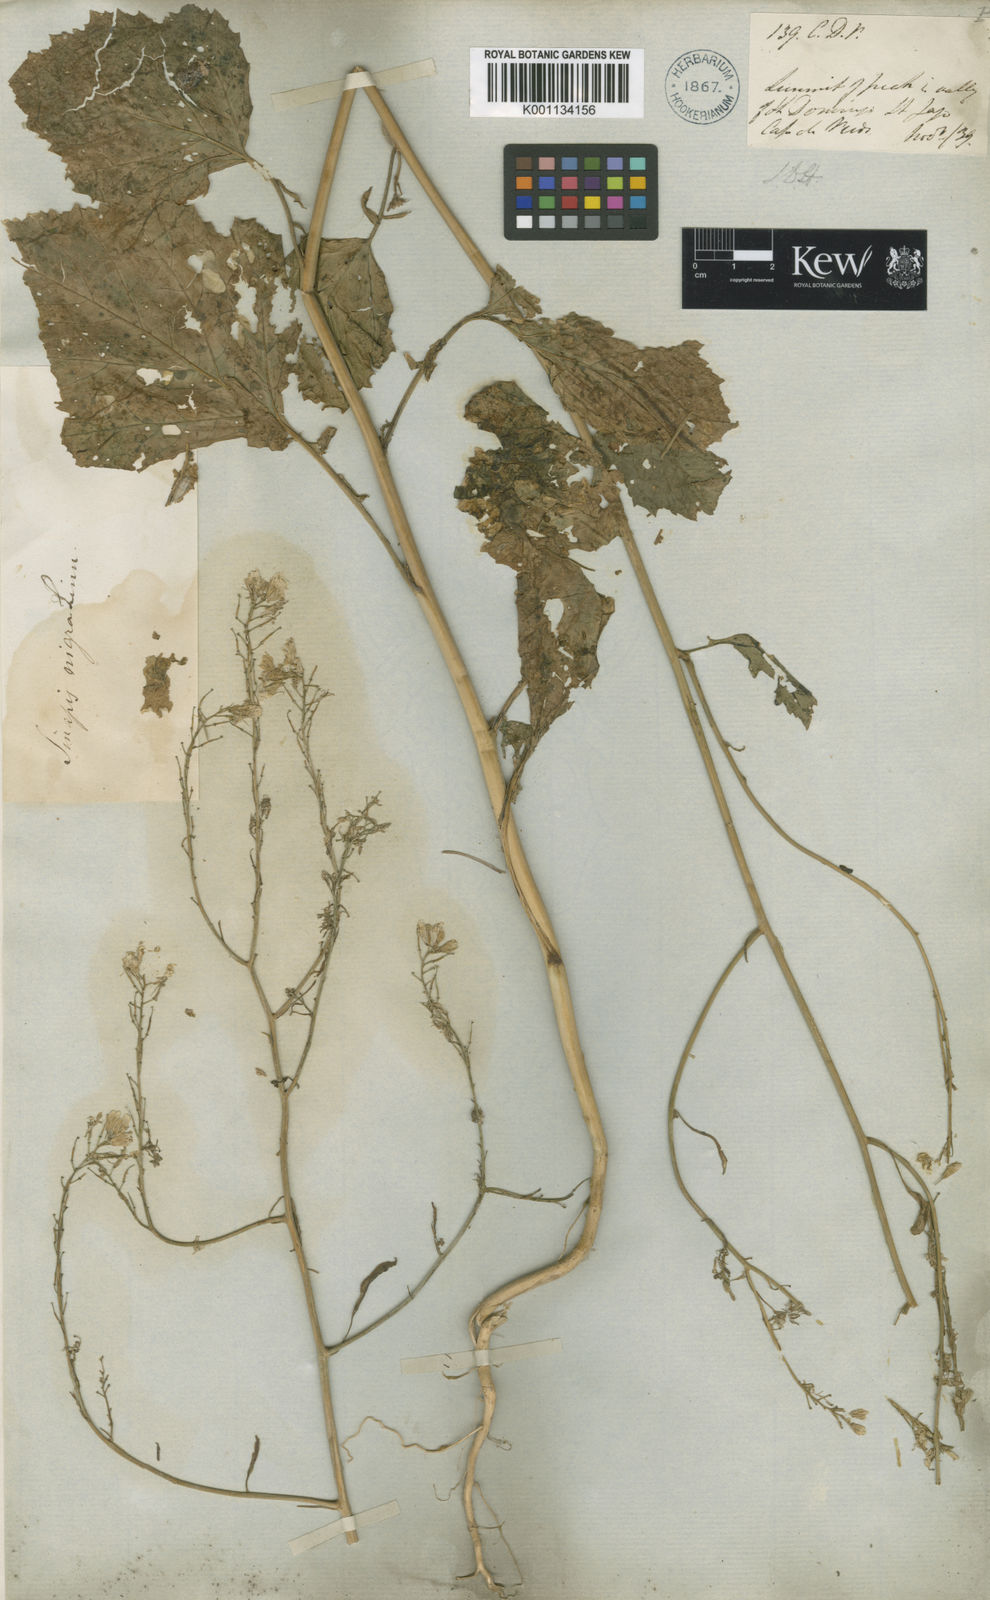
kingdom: Plantae
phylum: Tracheophyta
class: Magnoliopsida
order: Brassicales
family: Brassicaceae
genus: Brassica
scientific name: Brassica
